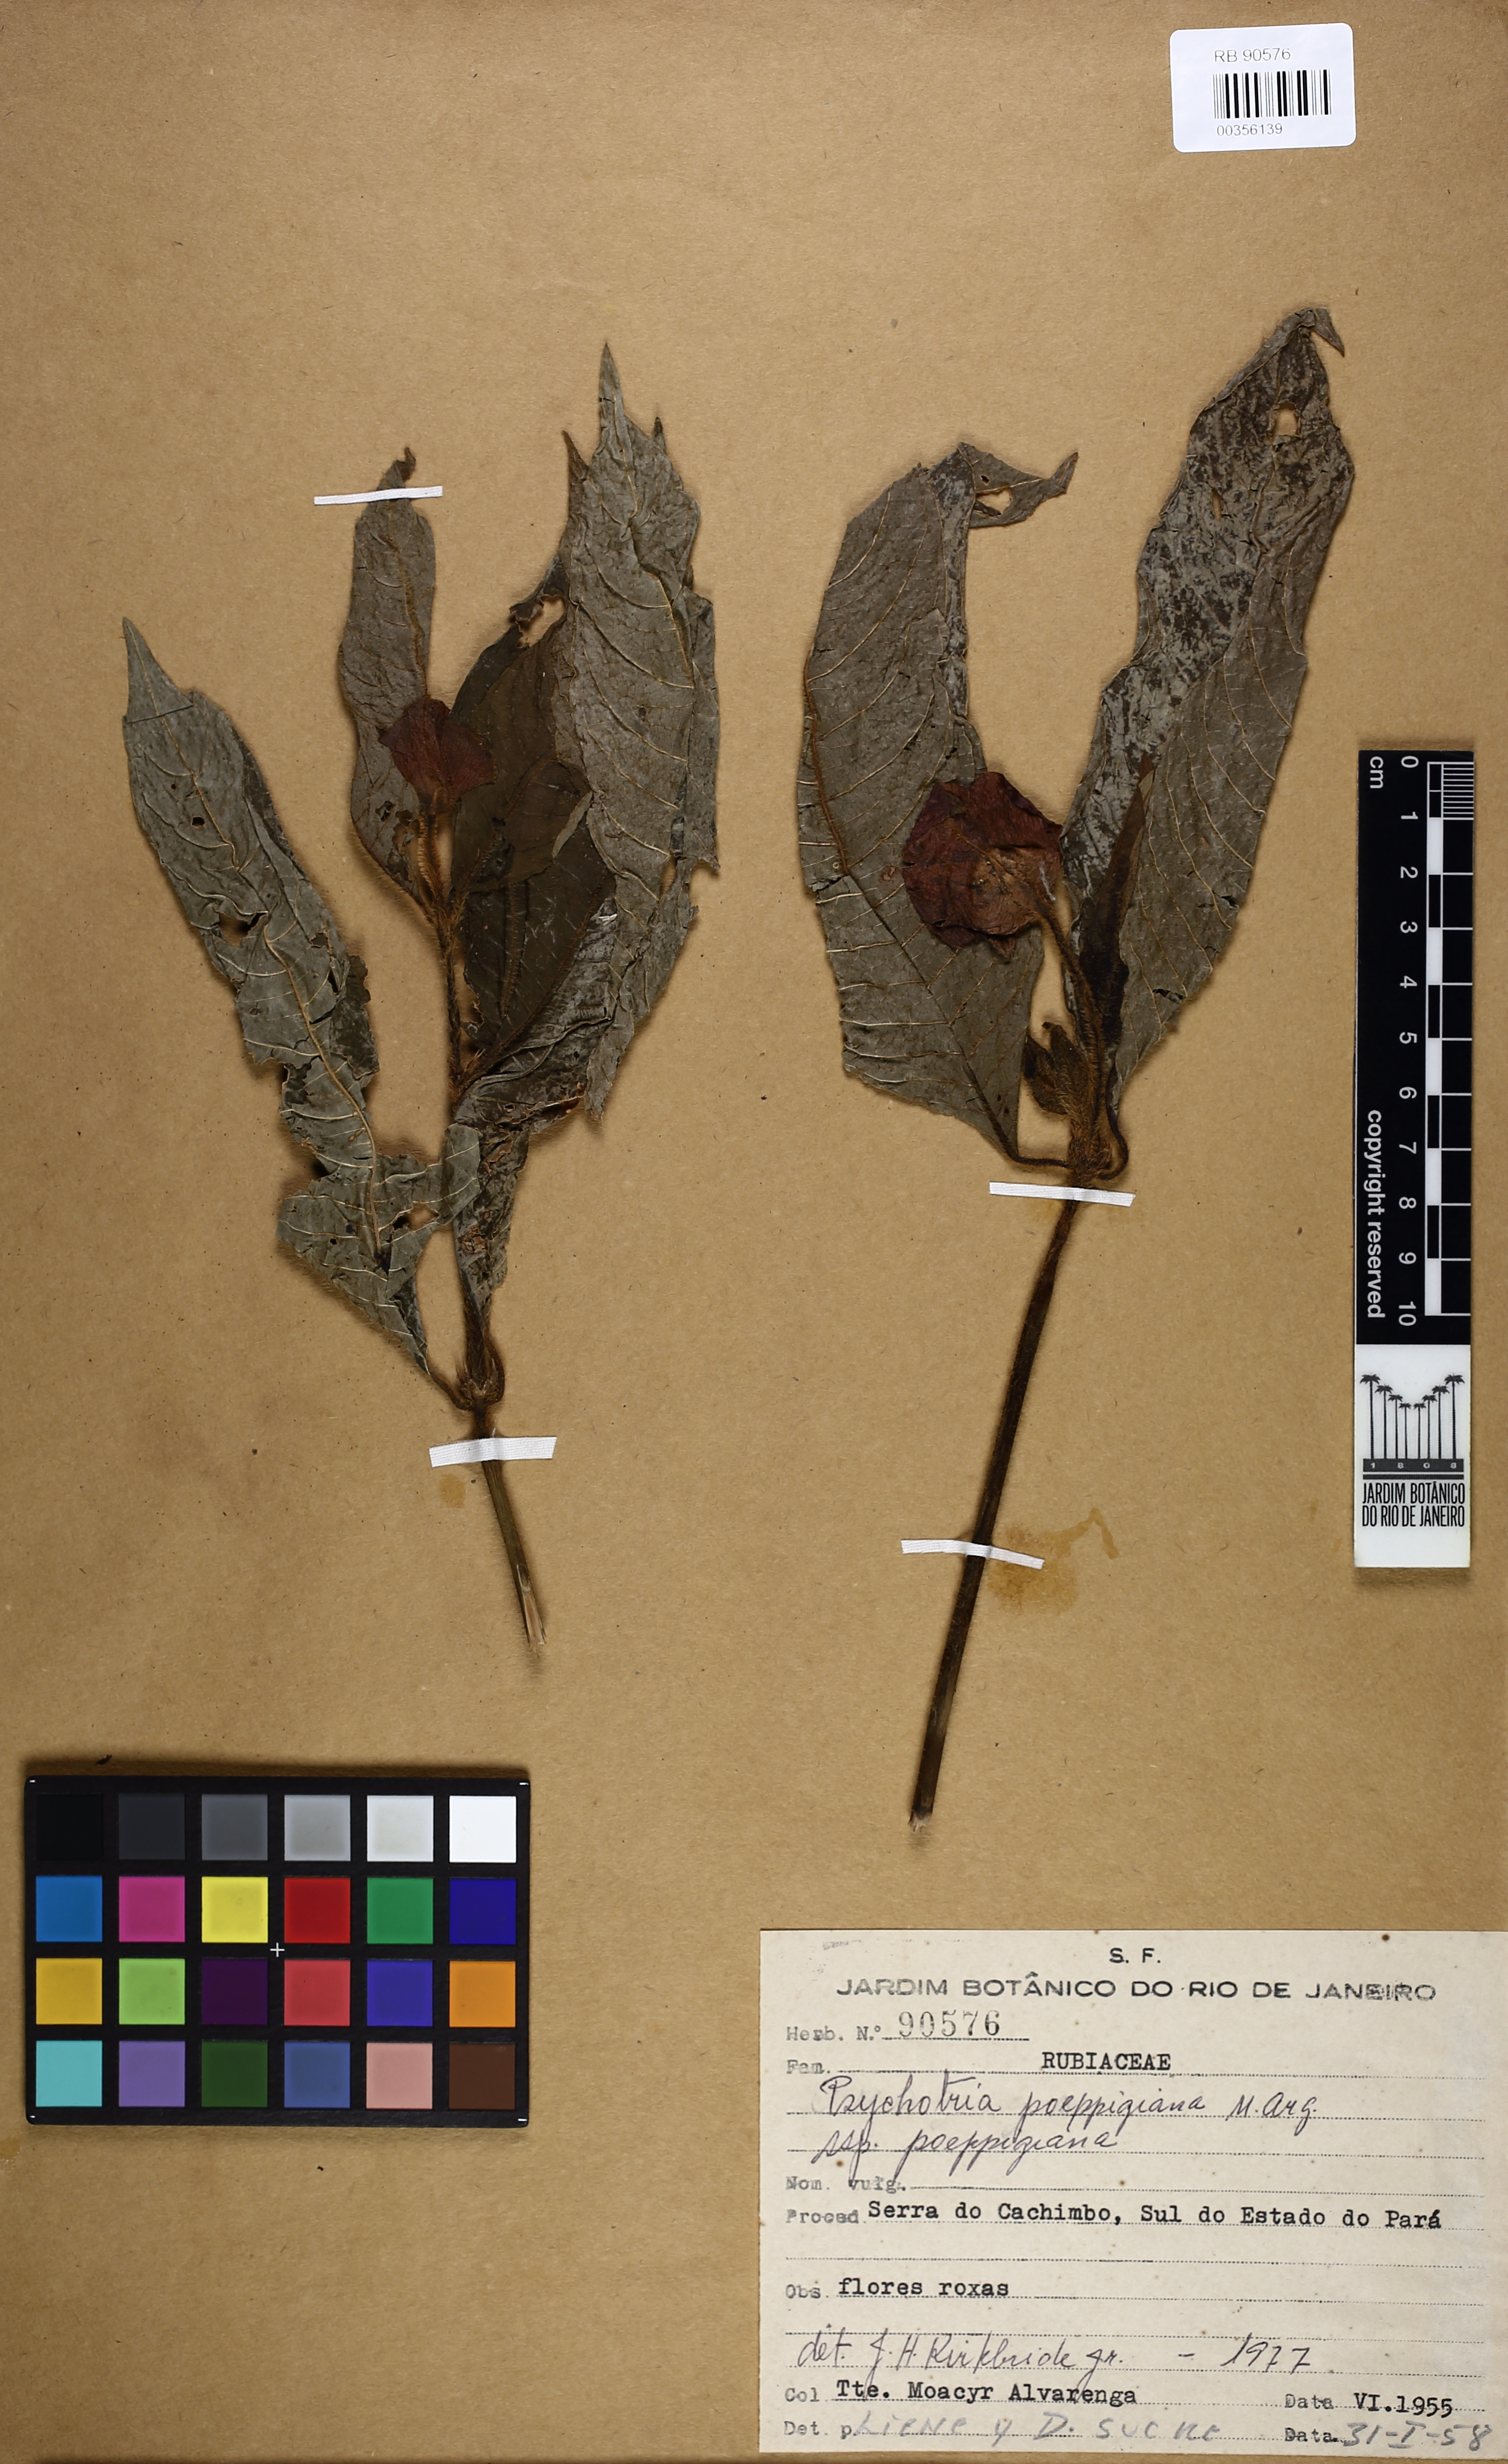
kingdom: Plantae
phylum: Tracheophyta
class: Magnoliopsida
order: Gentianales
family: Rubiaceae
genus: Palicourea
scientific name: Palicourea tomentosa
